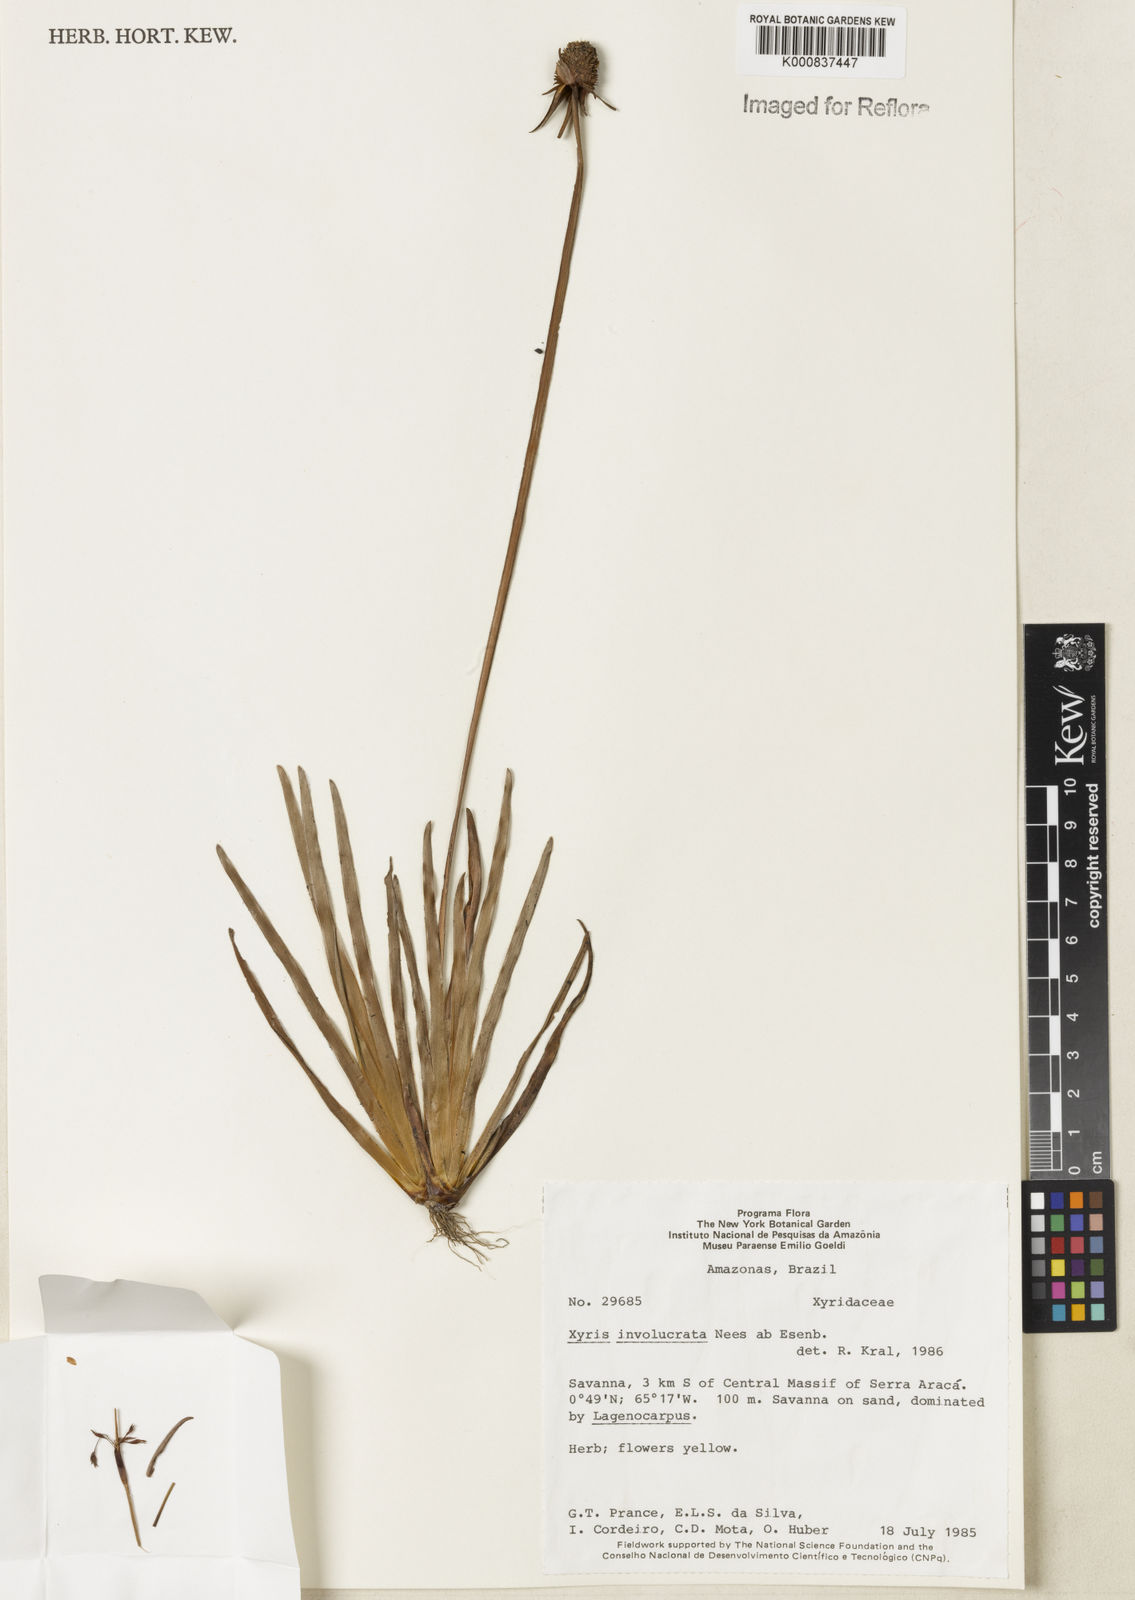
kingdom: Plantae
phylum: Tracheophyta
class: Liliopsida
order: Poales
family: Xyridaceae
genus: Xyris
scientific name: Xyris involucrata
